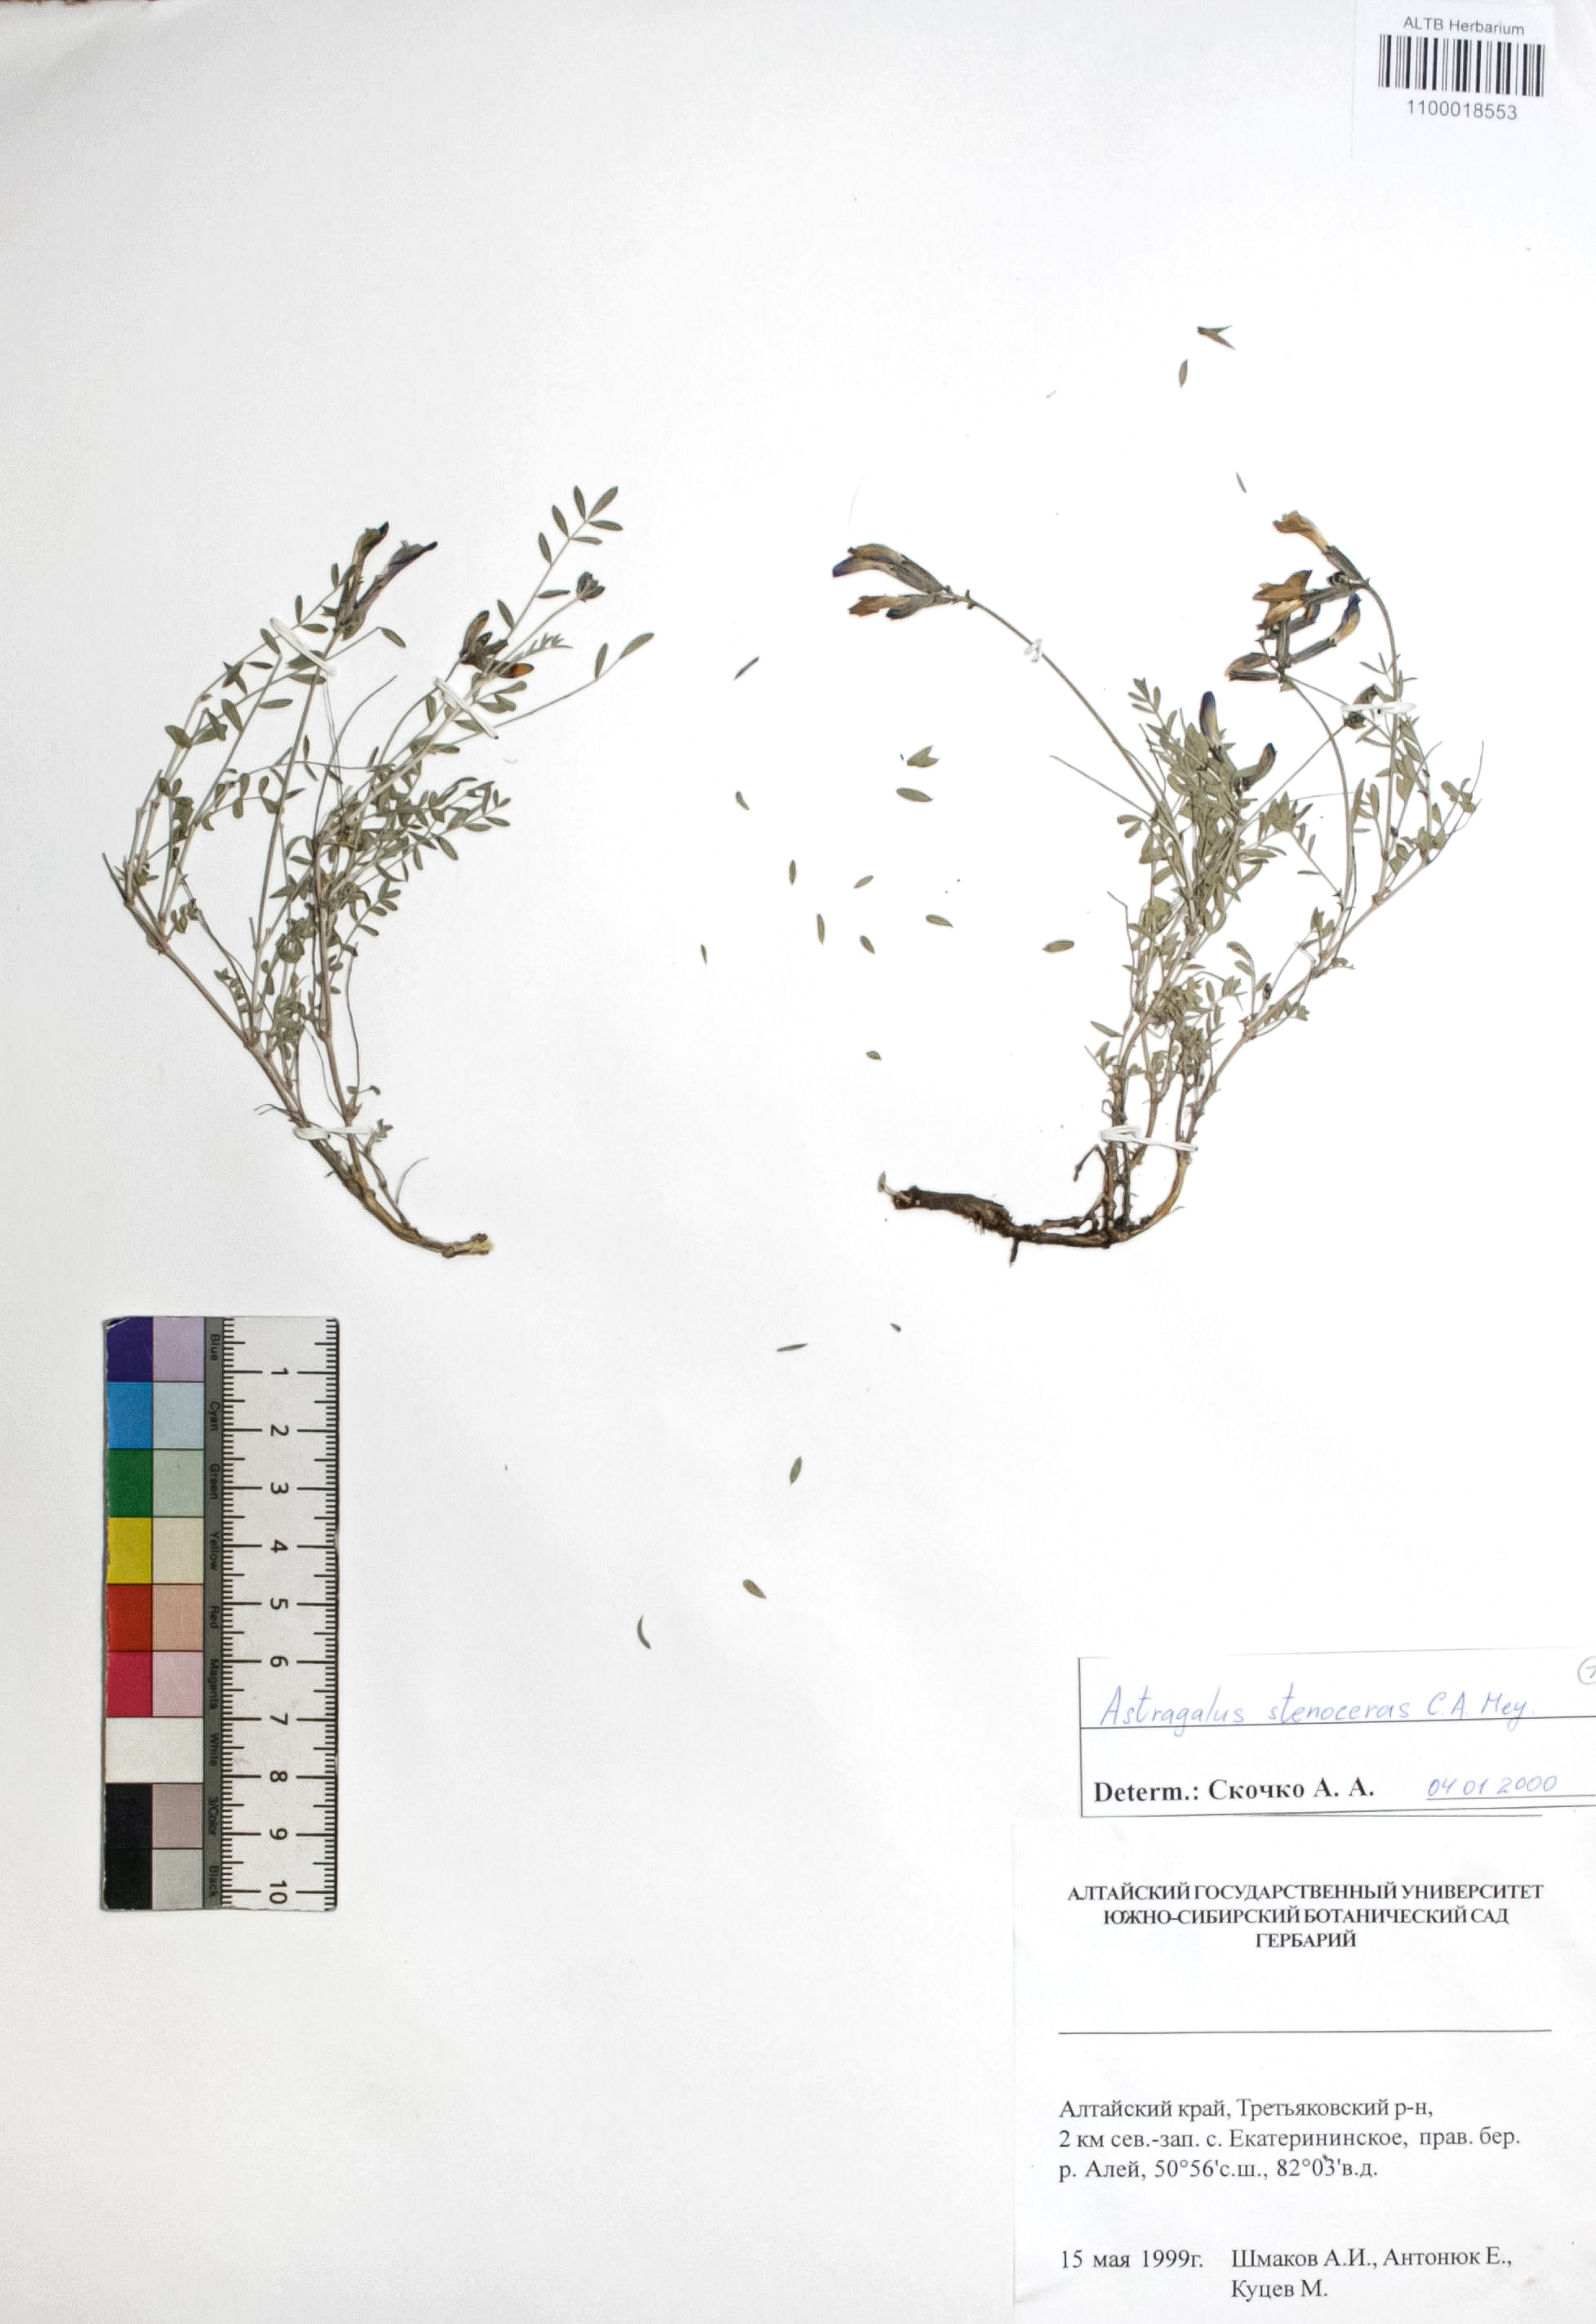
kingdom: Plantae
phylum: Tracheophyta
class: Magnoliopsida
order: Fabales
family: Fabaceae
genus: Astragalus
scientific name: Astragalus stenoceras
